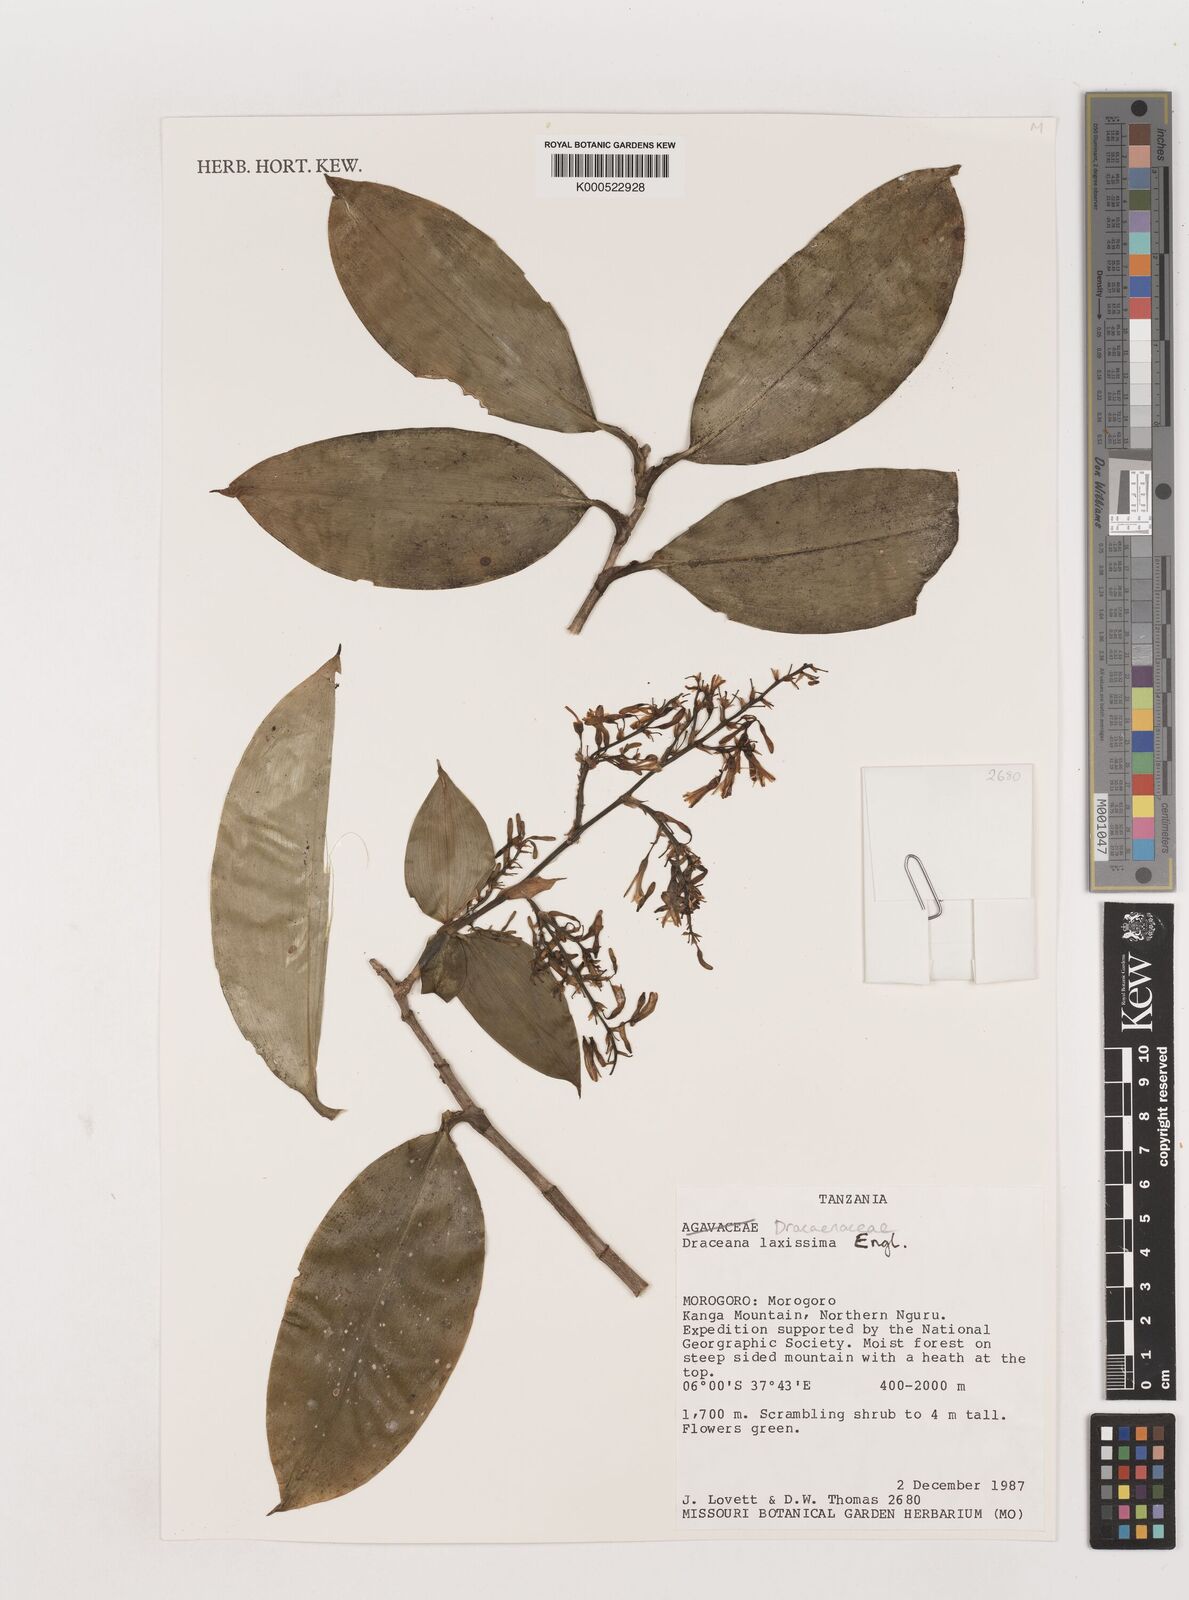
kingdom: Plantae
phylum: Tracheophyta
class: Liliopsida
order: Asparagales
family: Asparagaceae
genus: Dracaena
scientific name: Dracaena laxissima
